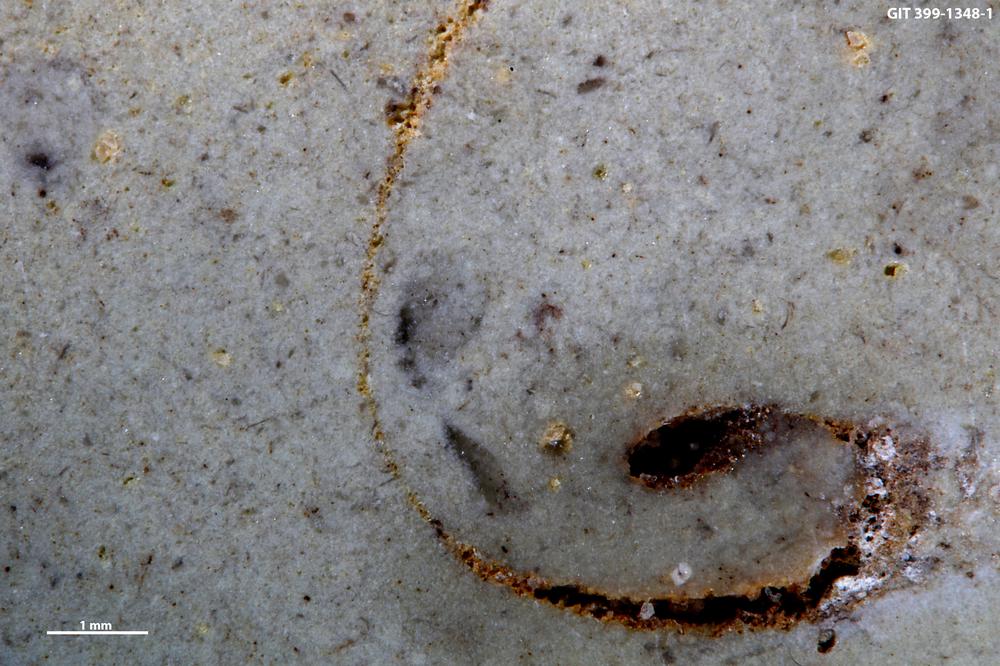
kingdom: Animalia
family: Coprulidae
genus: Coprulus
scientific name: Coprulus
